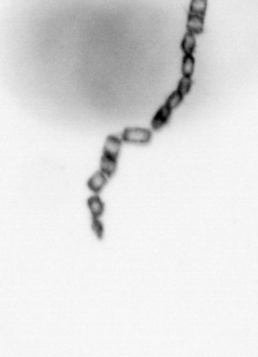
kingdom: Chromista
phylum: Ochrophyta
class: Bacillariophyceae
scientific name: Bacillariophyceae
